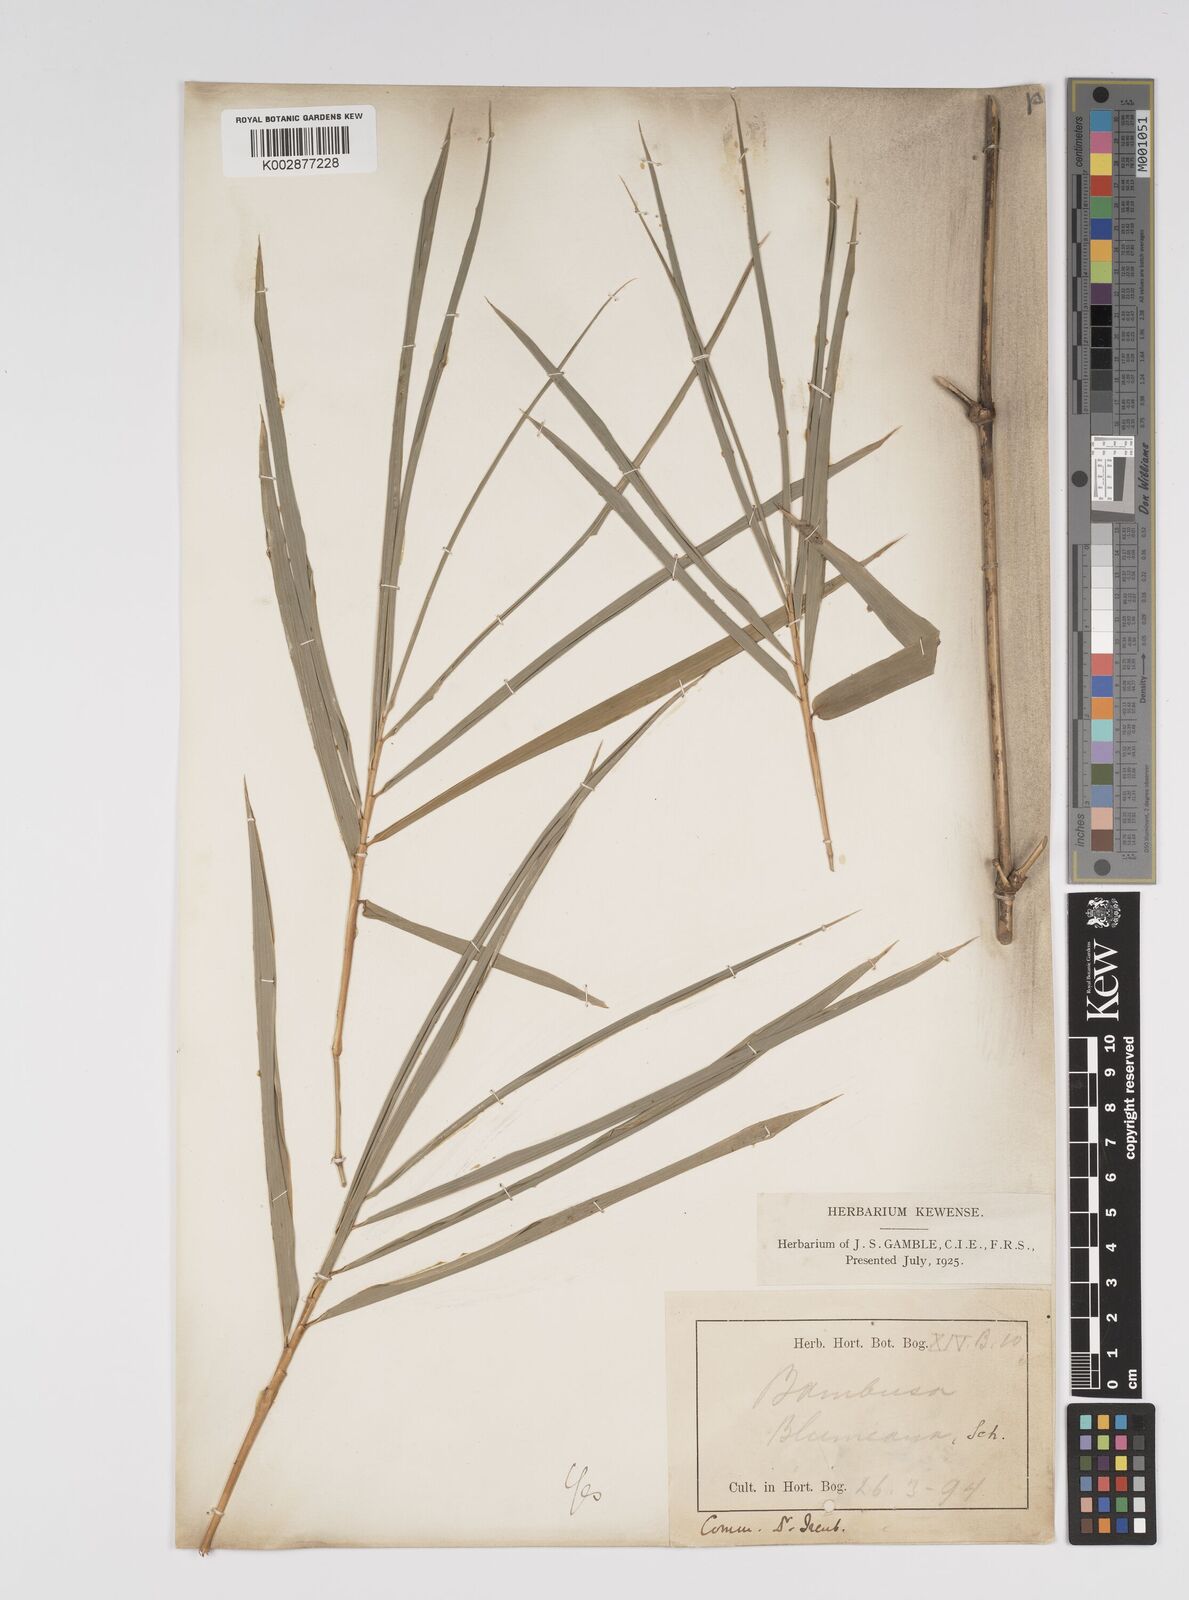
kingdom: Plantae
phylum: Tracheophyta
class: Liliopsida
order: Poales
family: Poaceae
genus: Bambusa
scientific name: Bambusa bambos
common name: Indian thorny bamboo
